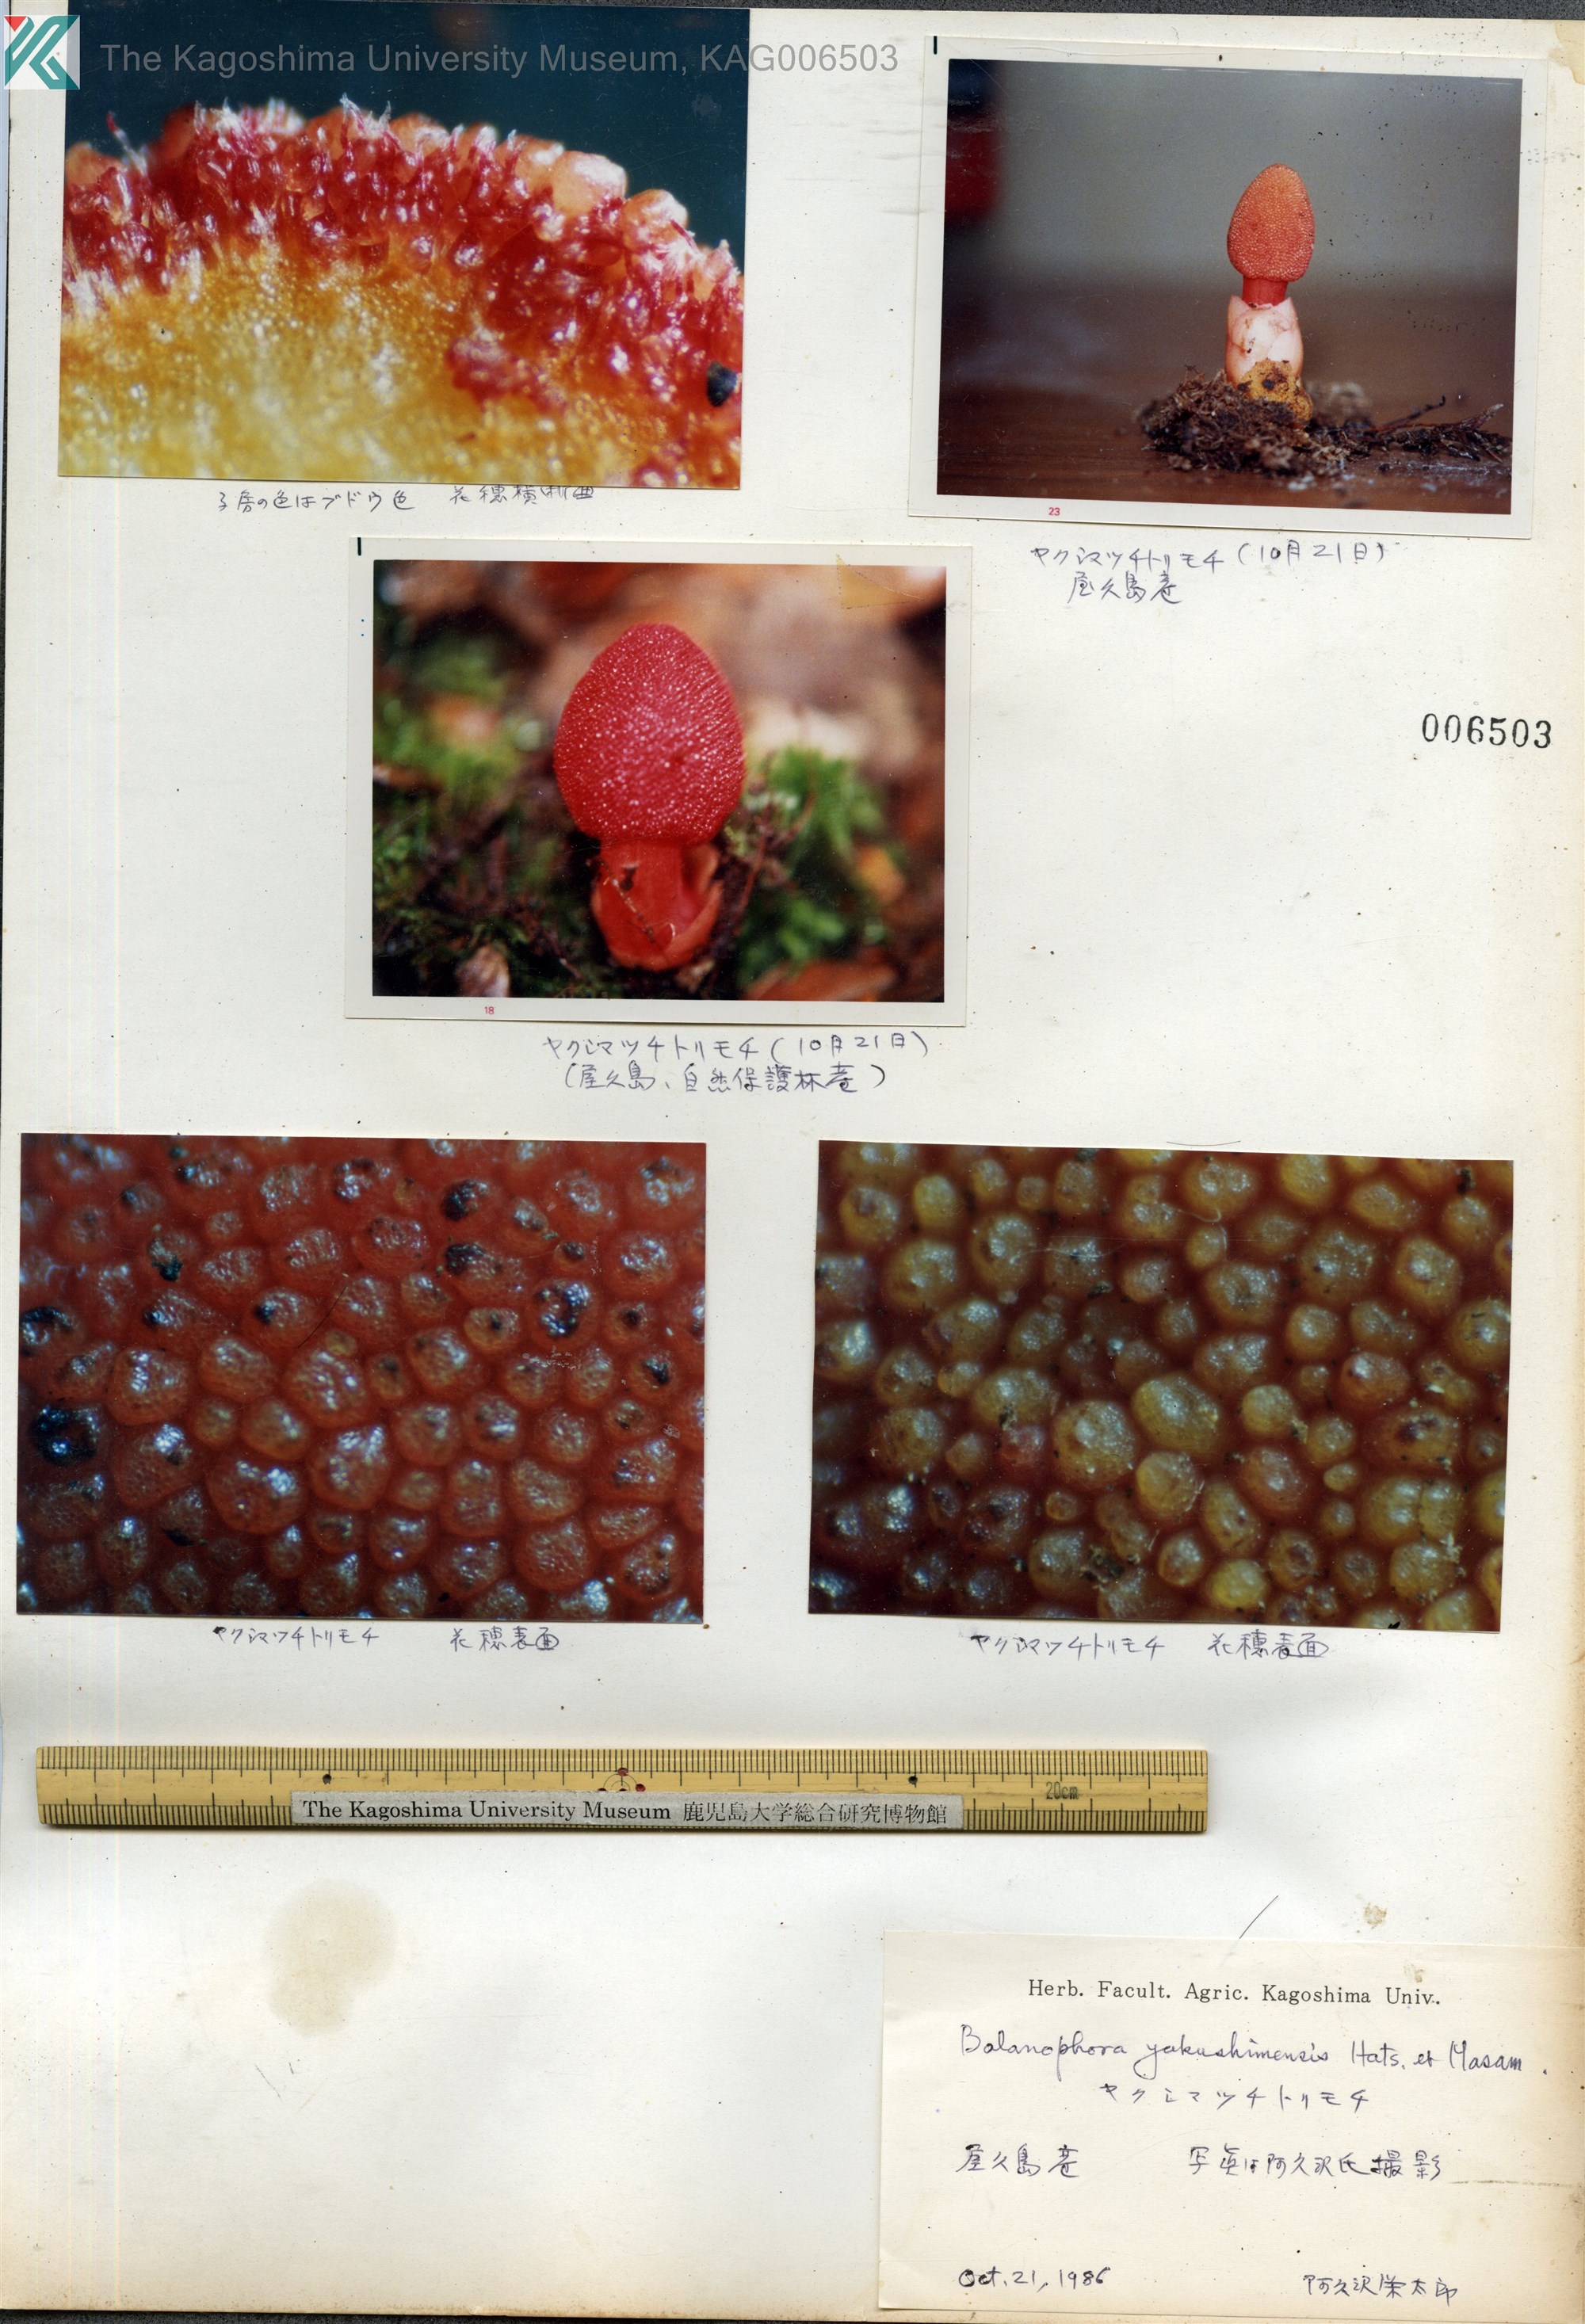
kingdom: Plantae
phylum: Tracheophyta
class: Magnoliopsida
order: Santalales
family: Balanophoraceae
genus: Balanophora
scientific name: Balanophora yakushimensis
